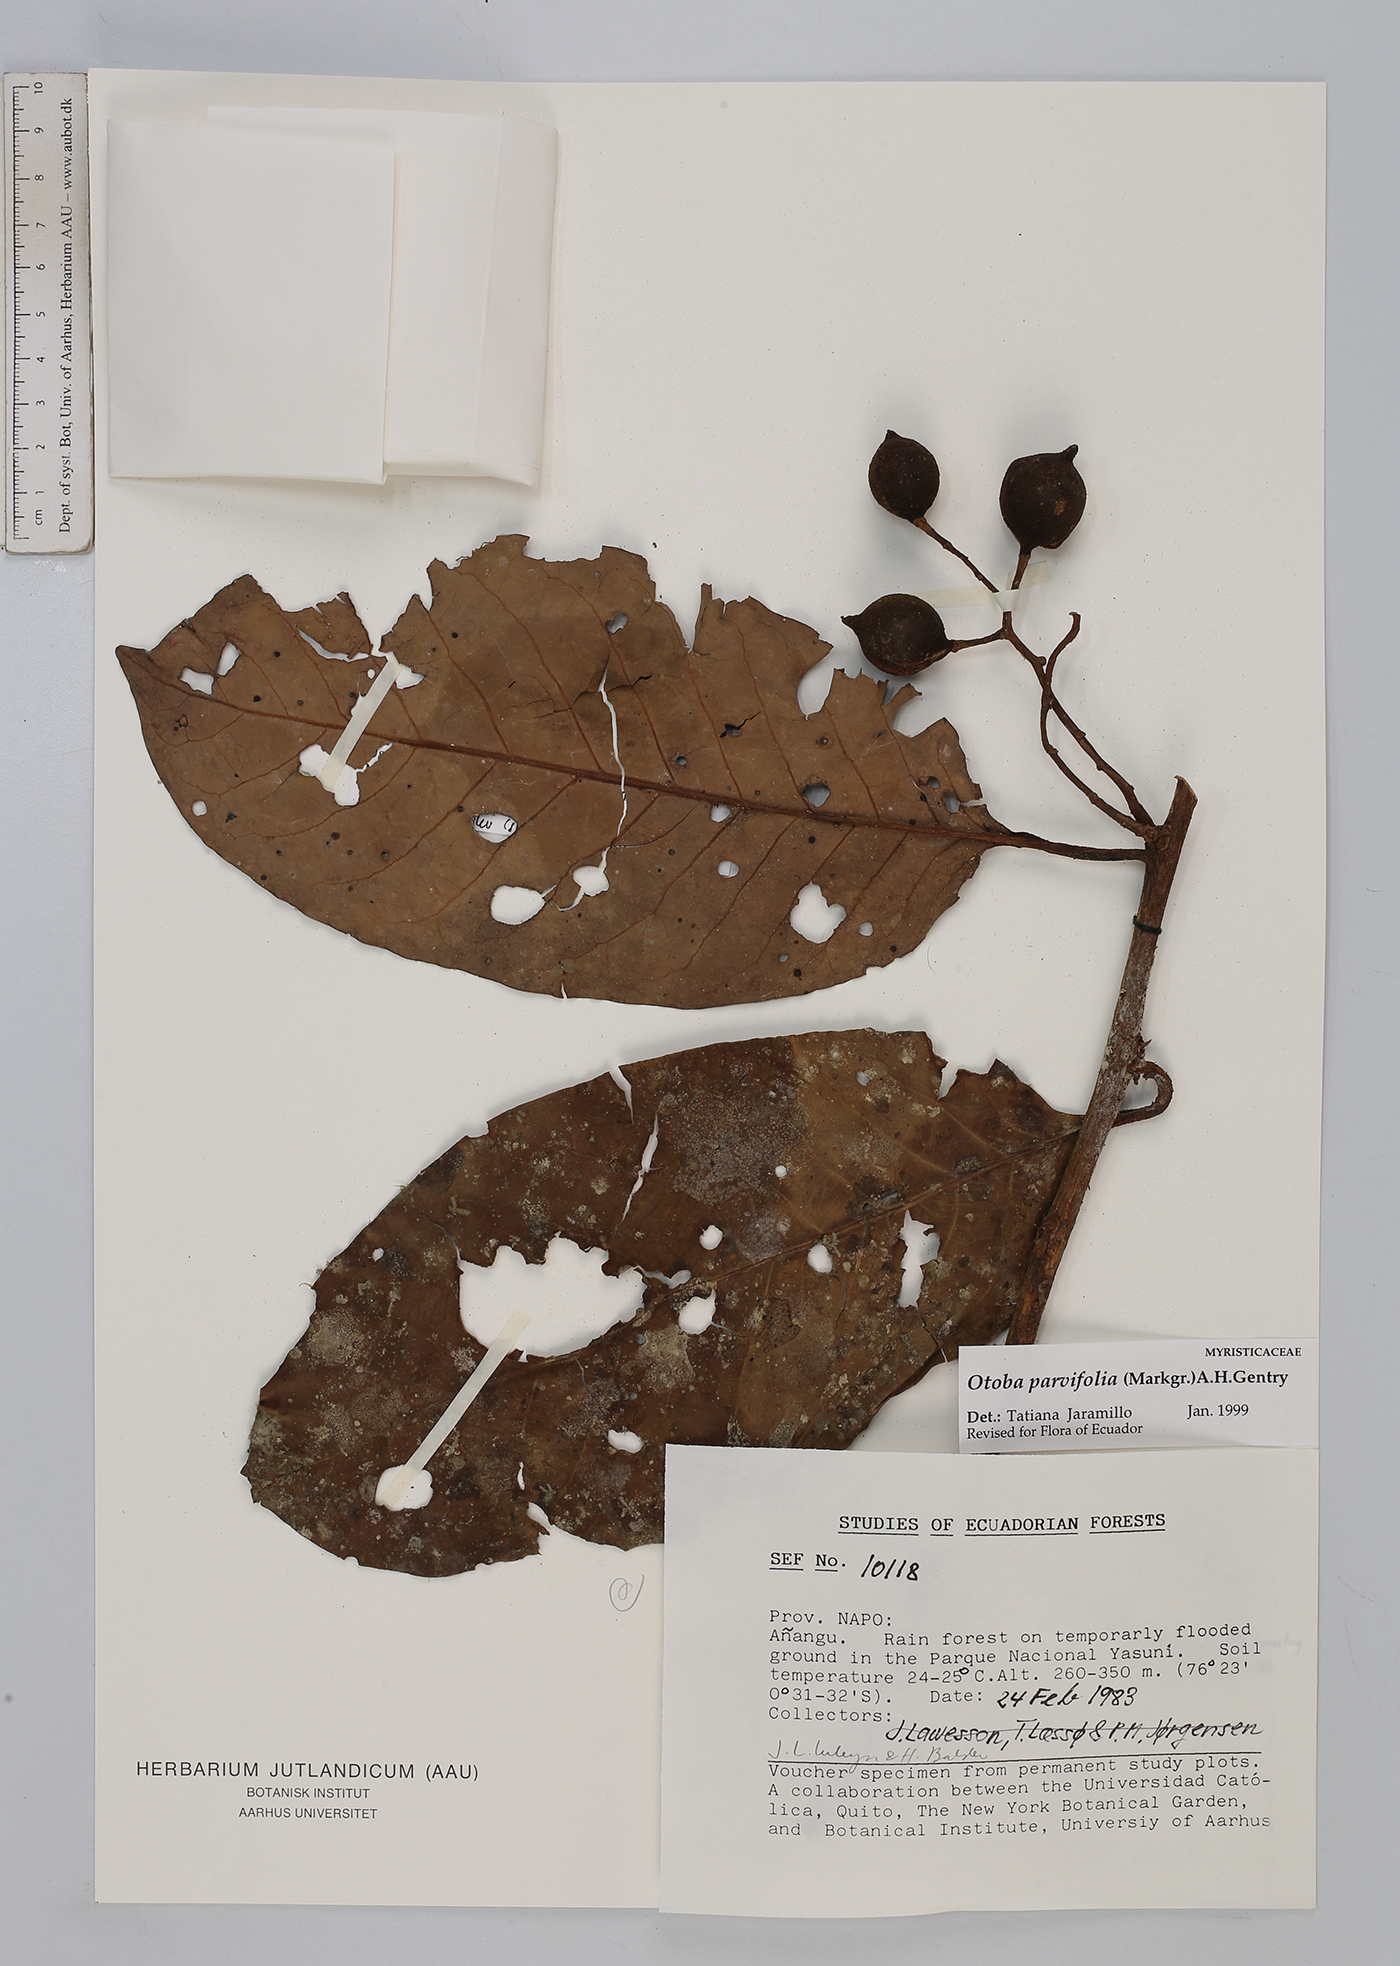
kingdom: Plantae
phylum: Tracheophyta
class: Magnoliopsida
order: Magnoliales
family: Myristicaceae
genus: Otoba
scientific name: Otoba parvifolia
